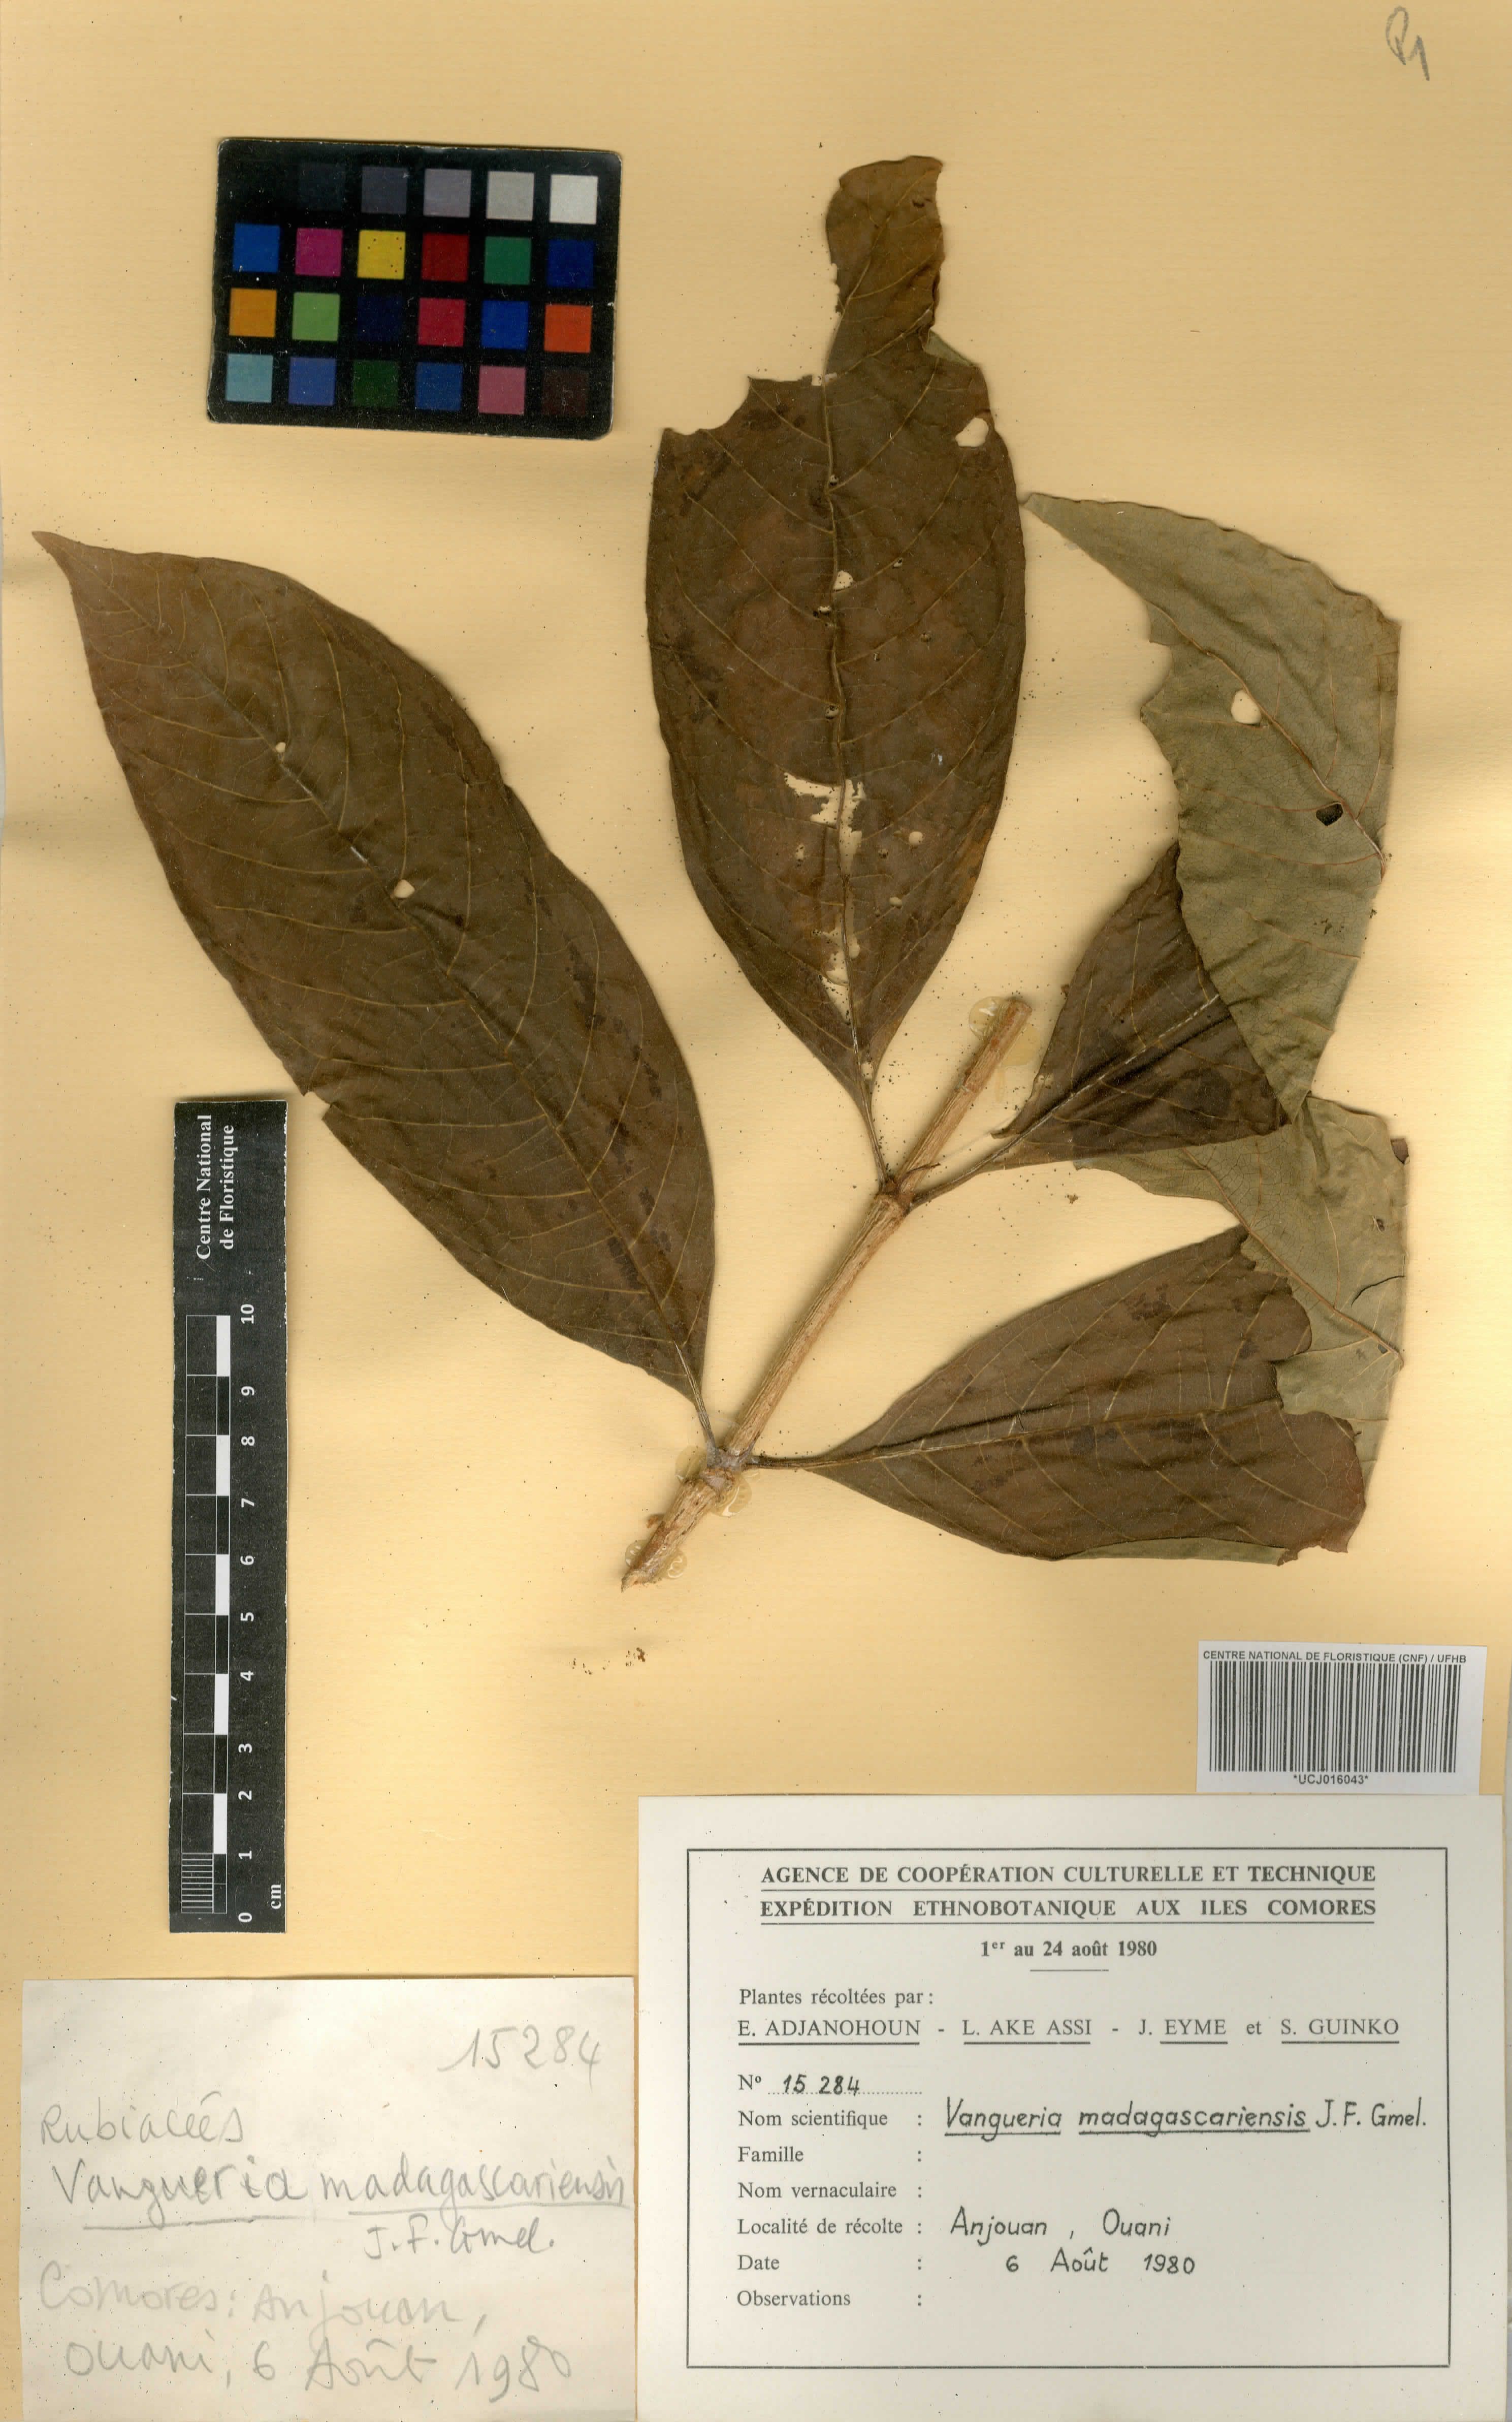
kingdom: Plantae
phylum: Tracheophyta
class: Magnoliopsida
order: Gentianales
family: Rubiaceae
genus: Vangueria
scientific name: Vangueria madagascariensis
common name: Smooth wild-medlar
